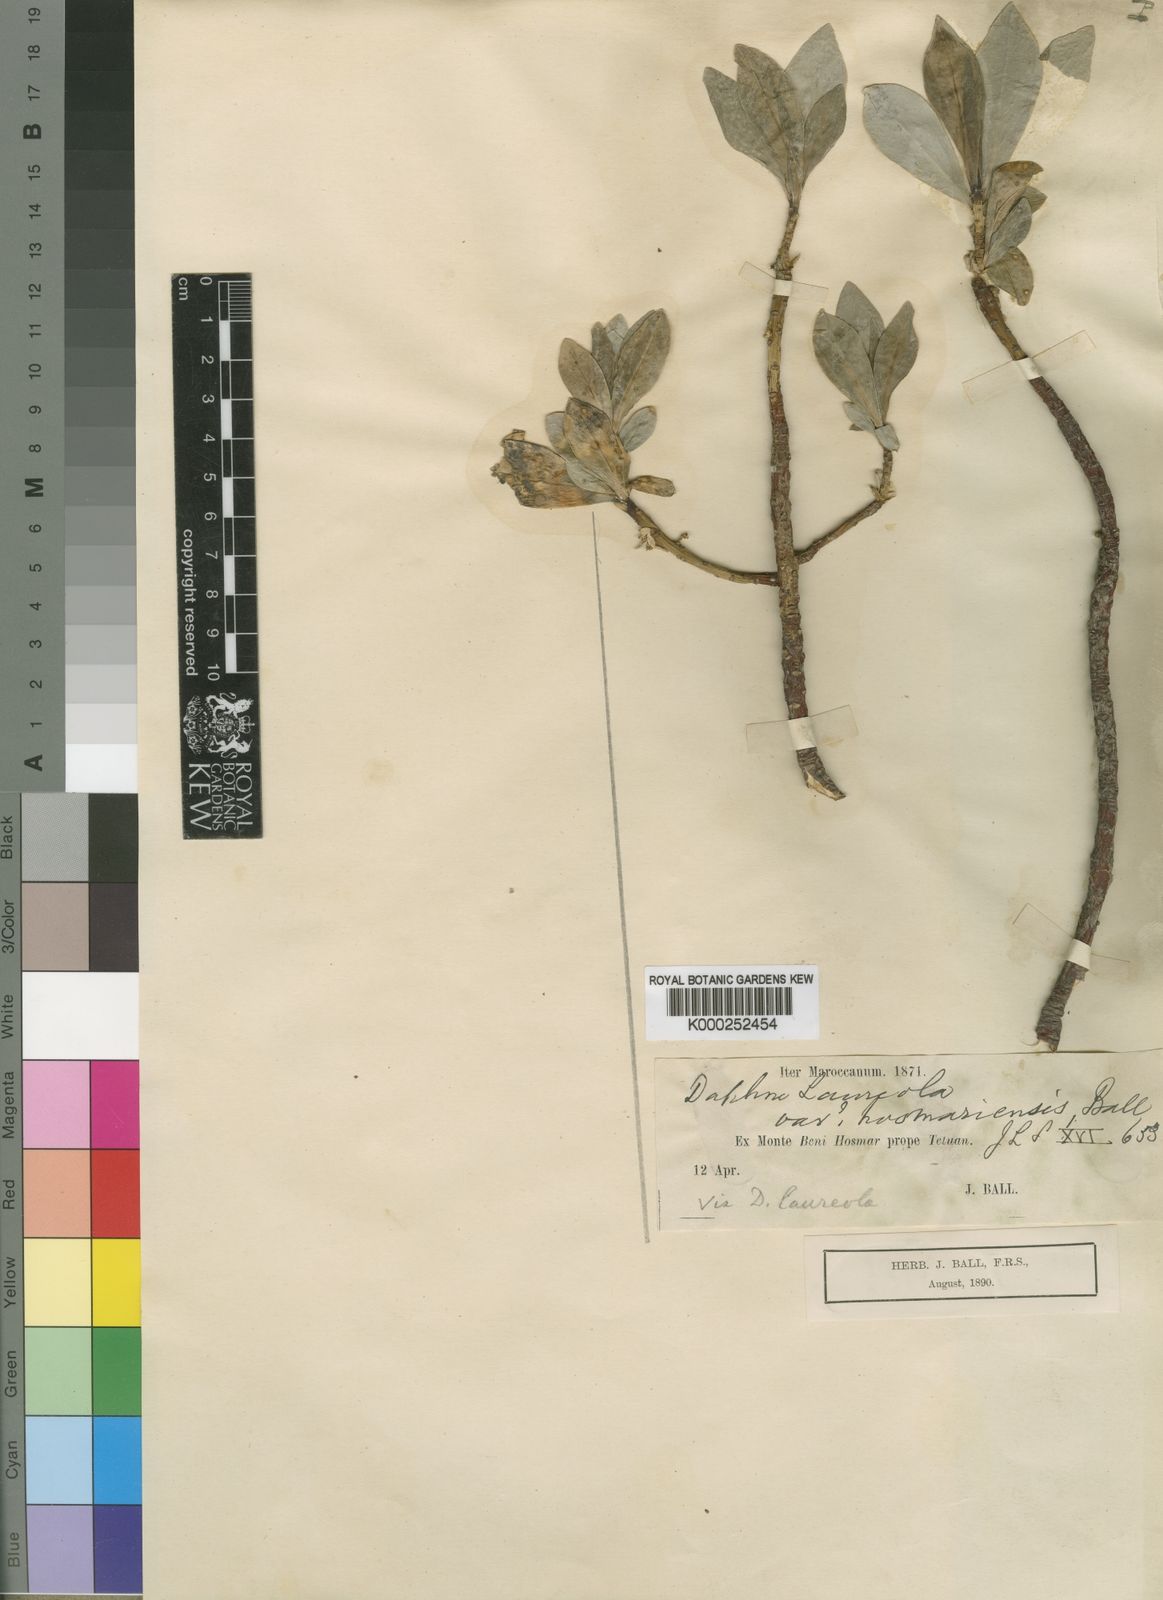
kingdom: Plantae
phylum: Tracheophyta
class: Magnoliopsida
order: Malvales
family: Thymelaeaceae
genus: Daphne
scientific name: Daphne laureola
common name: Spurge-laurel
